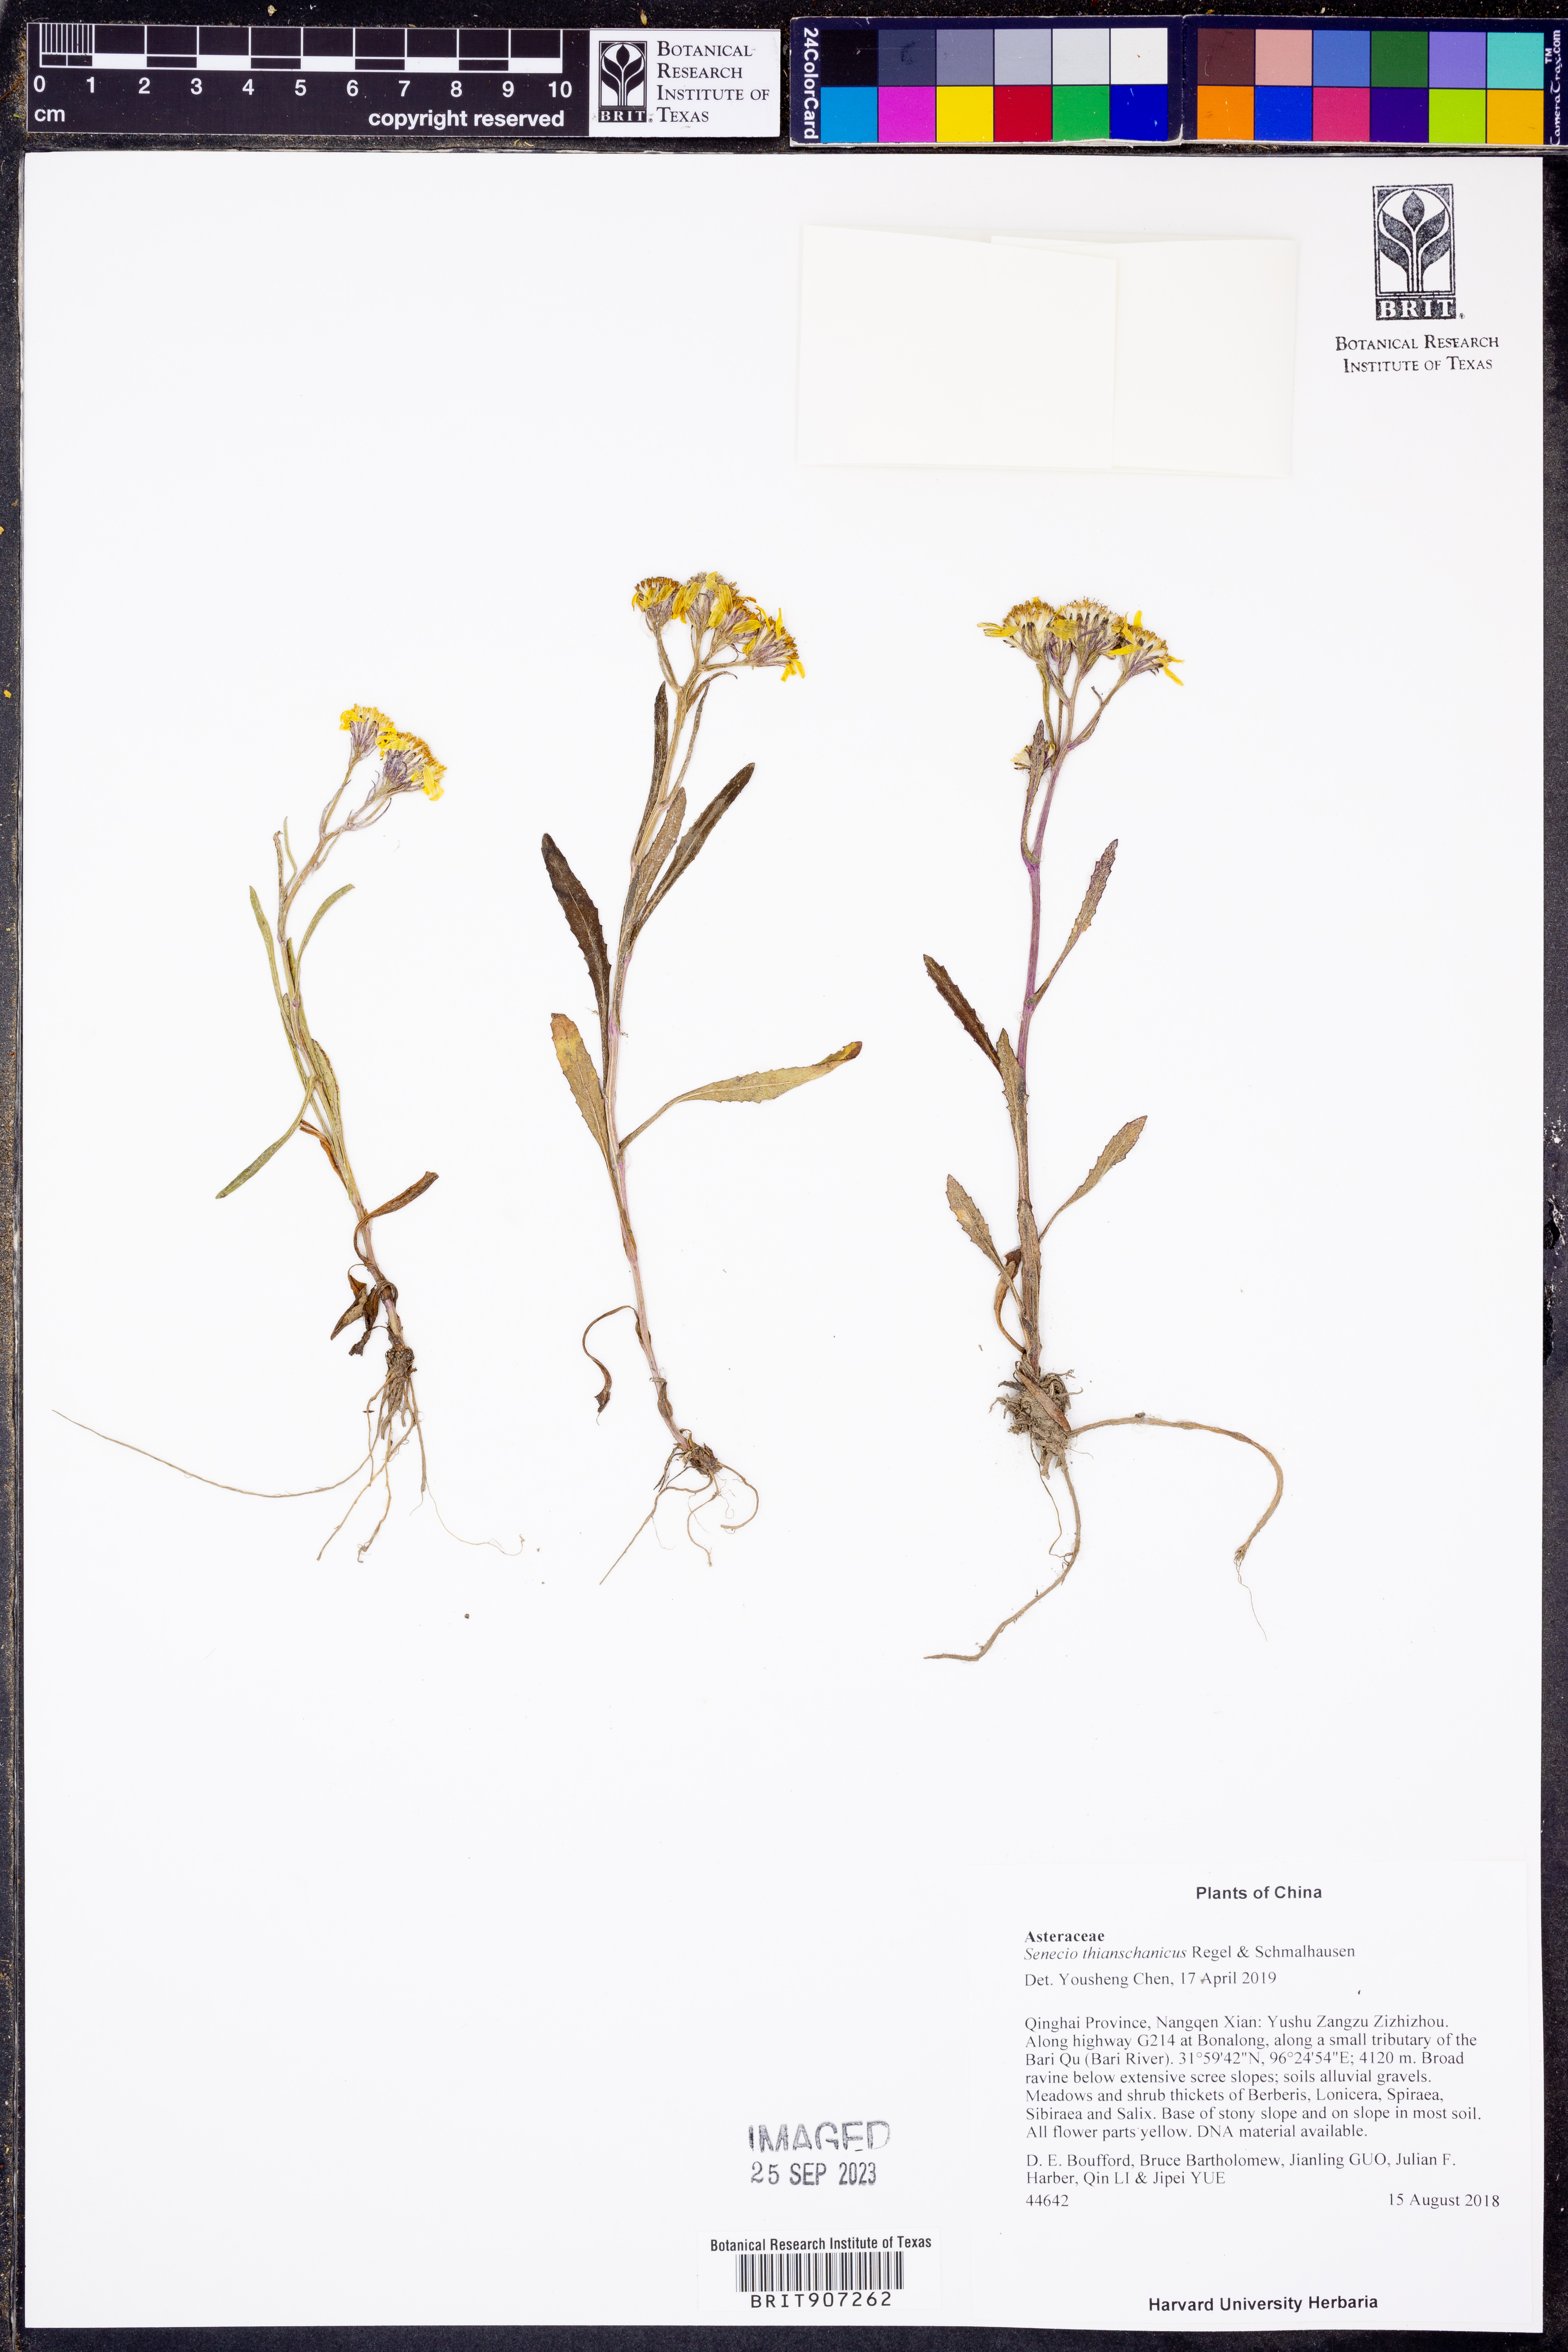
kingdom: Plantae
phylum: Tracheophyta
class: Magnoliopsida
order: Asterales
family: Asteraceae
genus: Senecio
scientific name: Senecio thianschanicus
